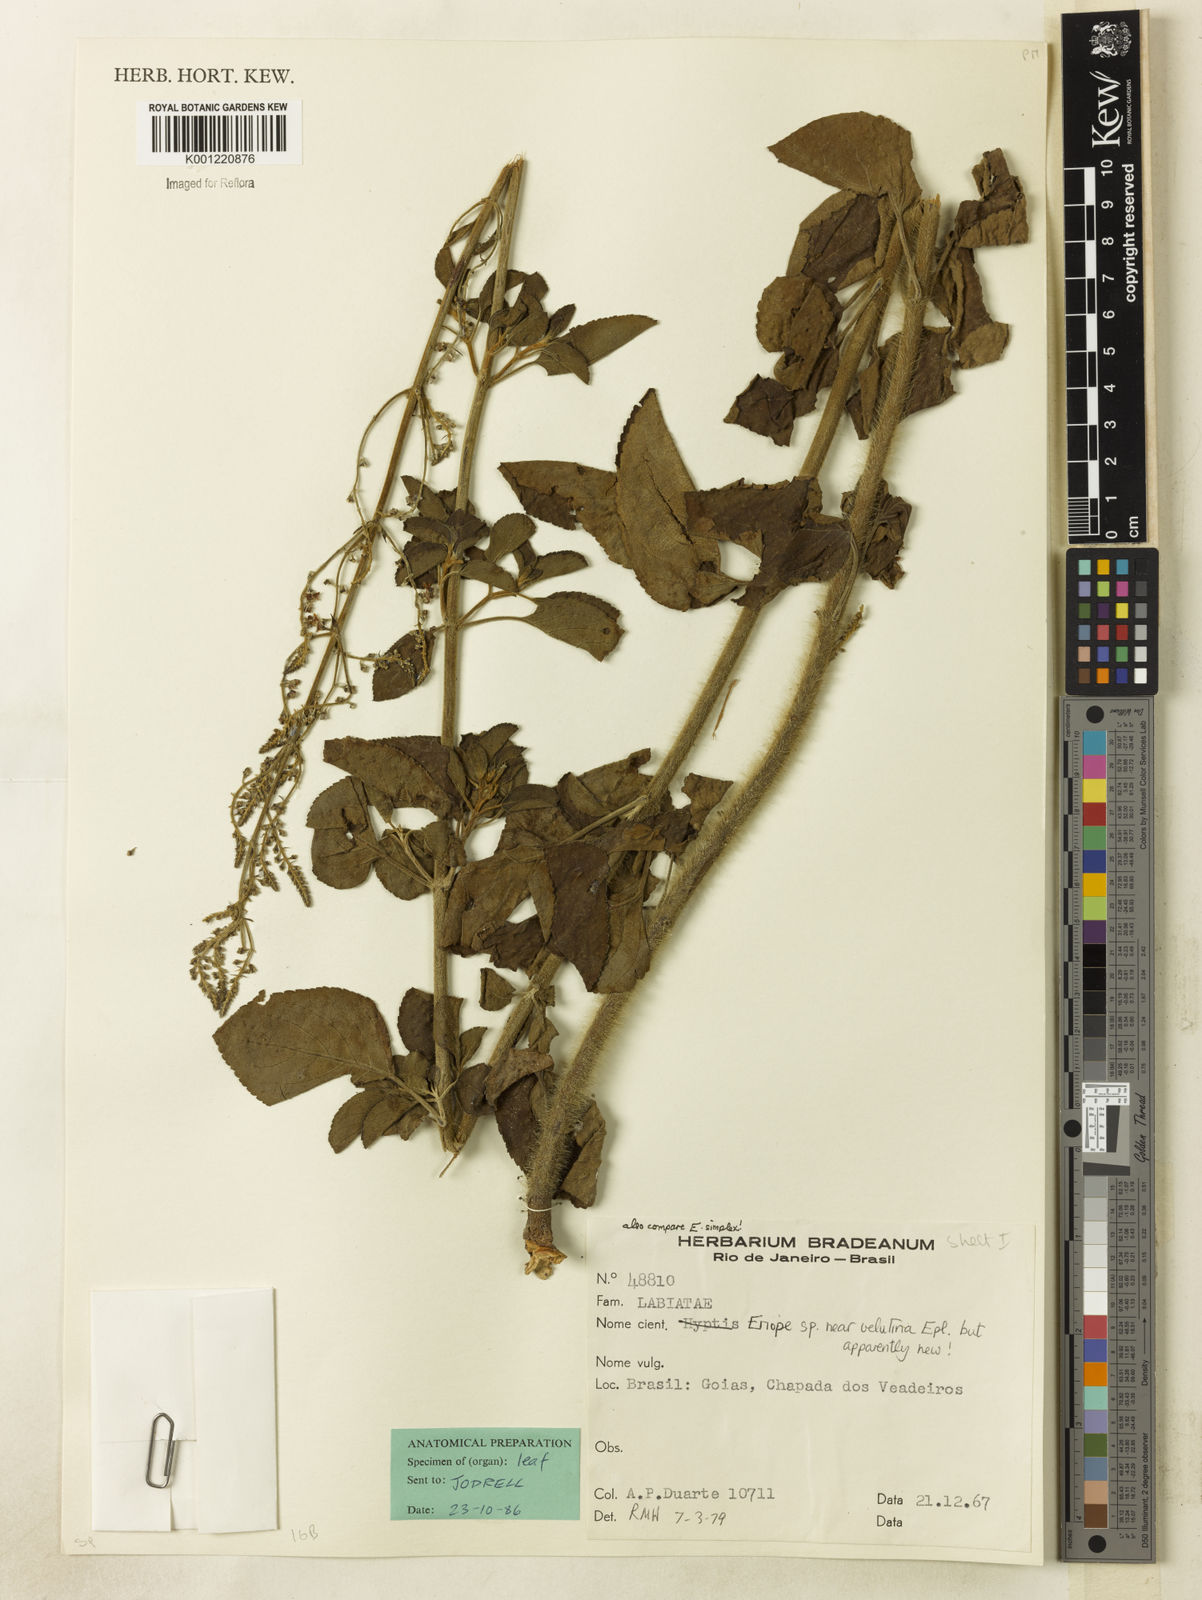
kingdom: Plantae
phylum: Tracheophyta
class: Magnoliopsida
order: Lamiales
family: Lamiaceae
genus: Eriope
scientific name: Eriope velutina
